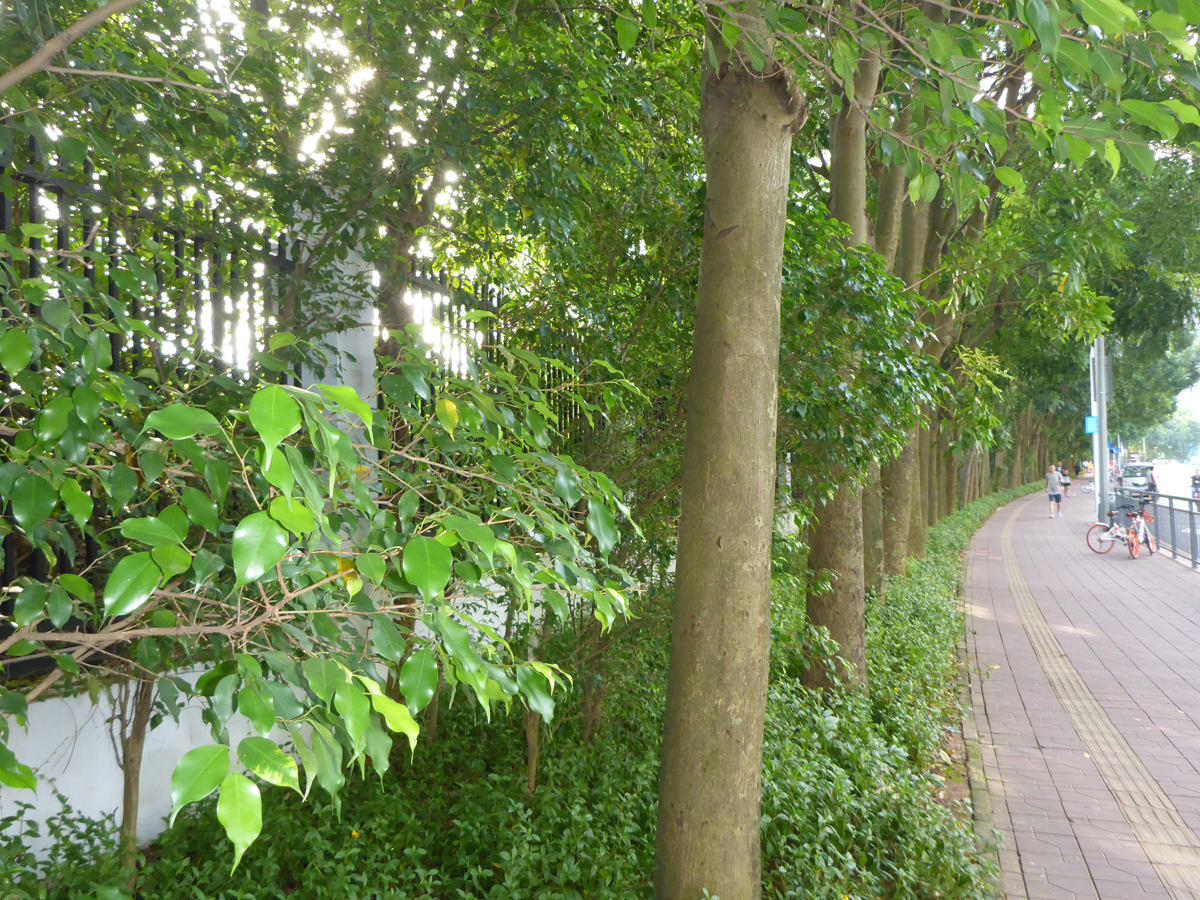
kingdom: Plantae
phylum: Tracheophyta
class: Magnoliopsida
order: Rosales
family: Moraceae
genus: Ficus
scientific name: Ficus benjamina
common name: Weeping fig
